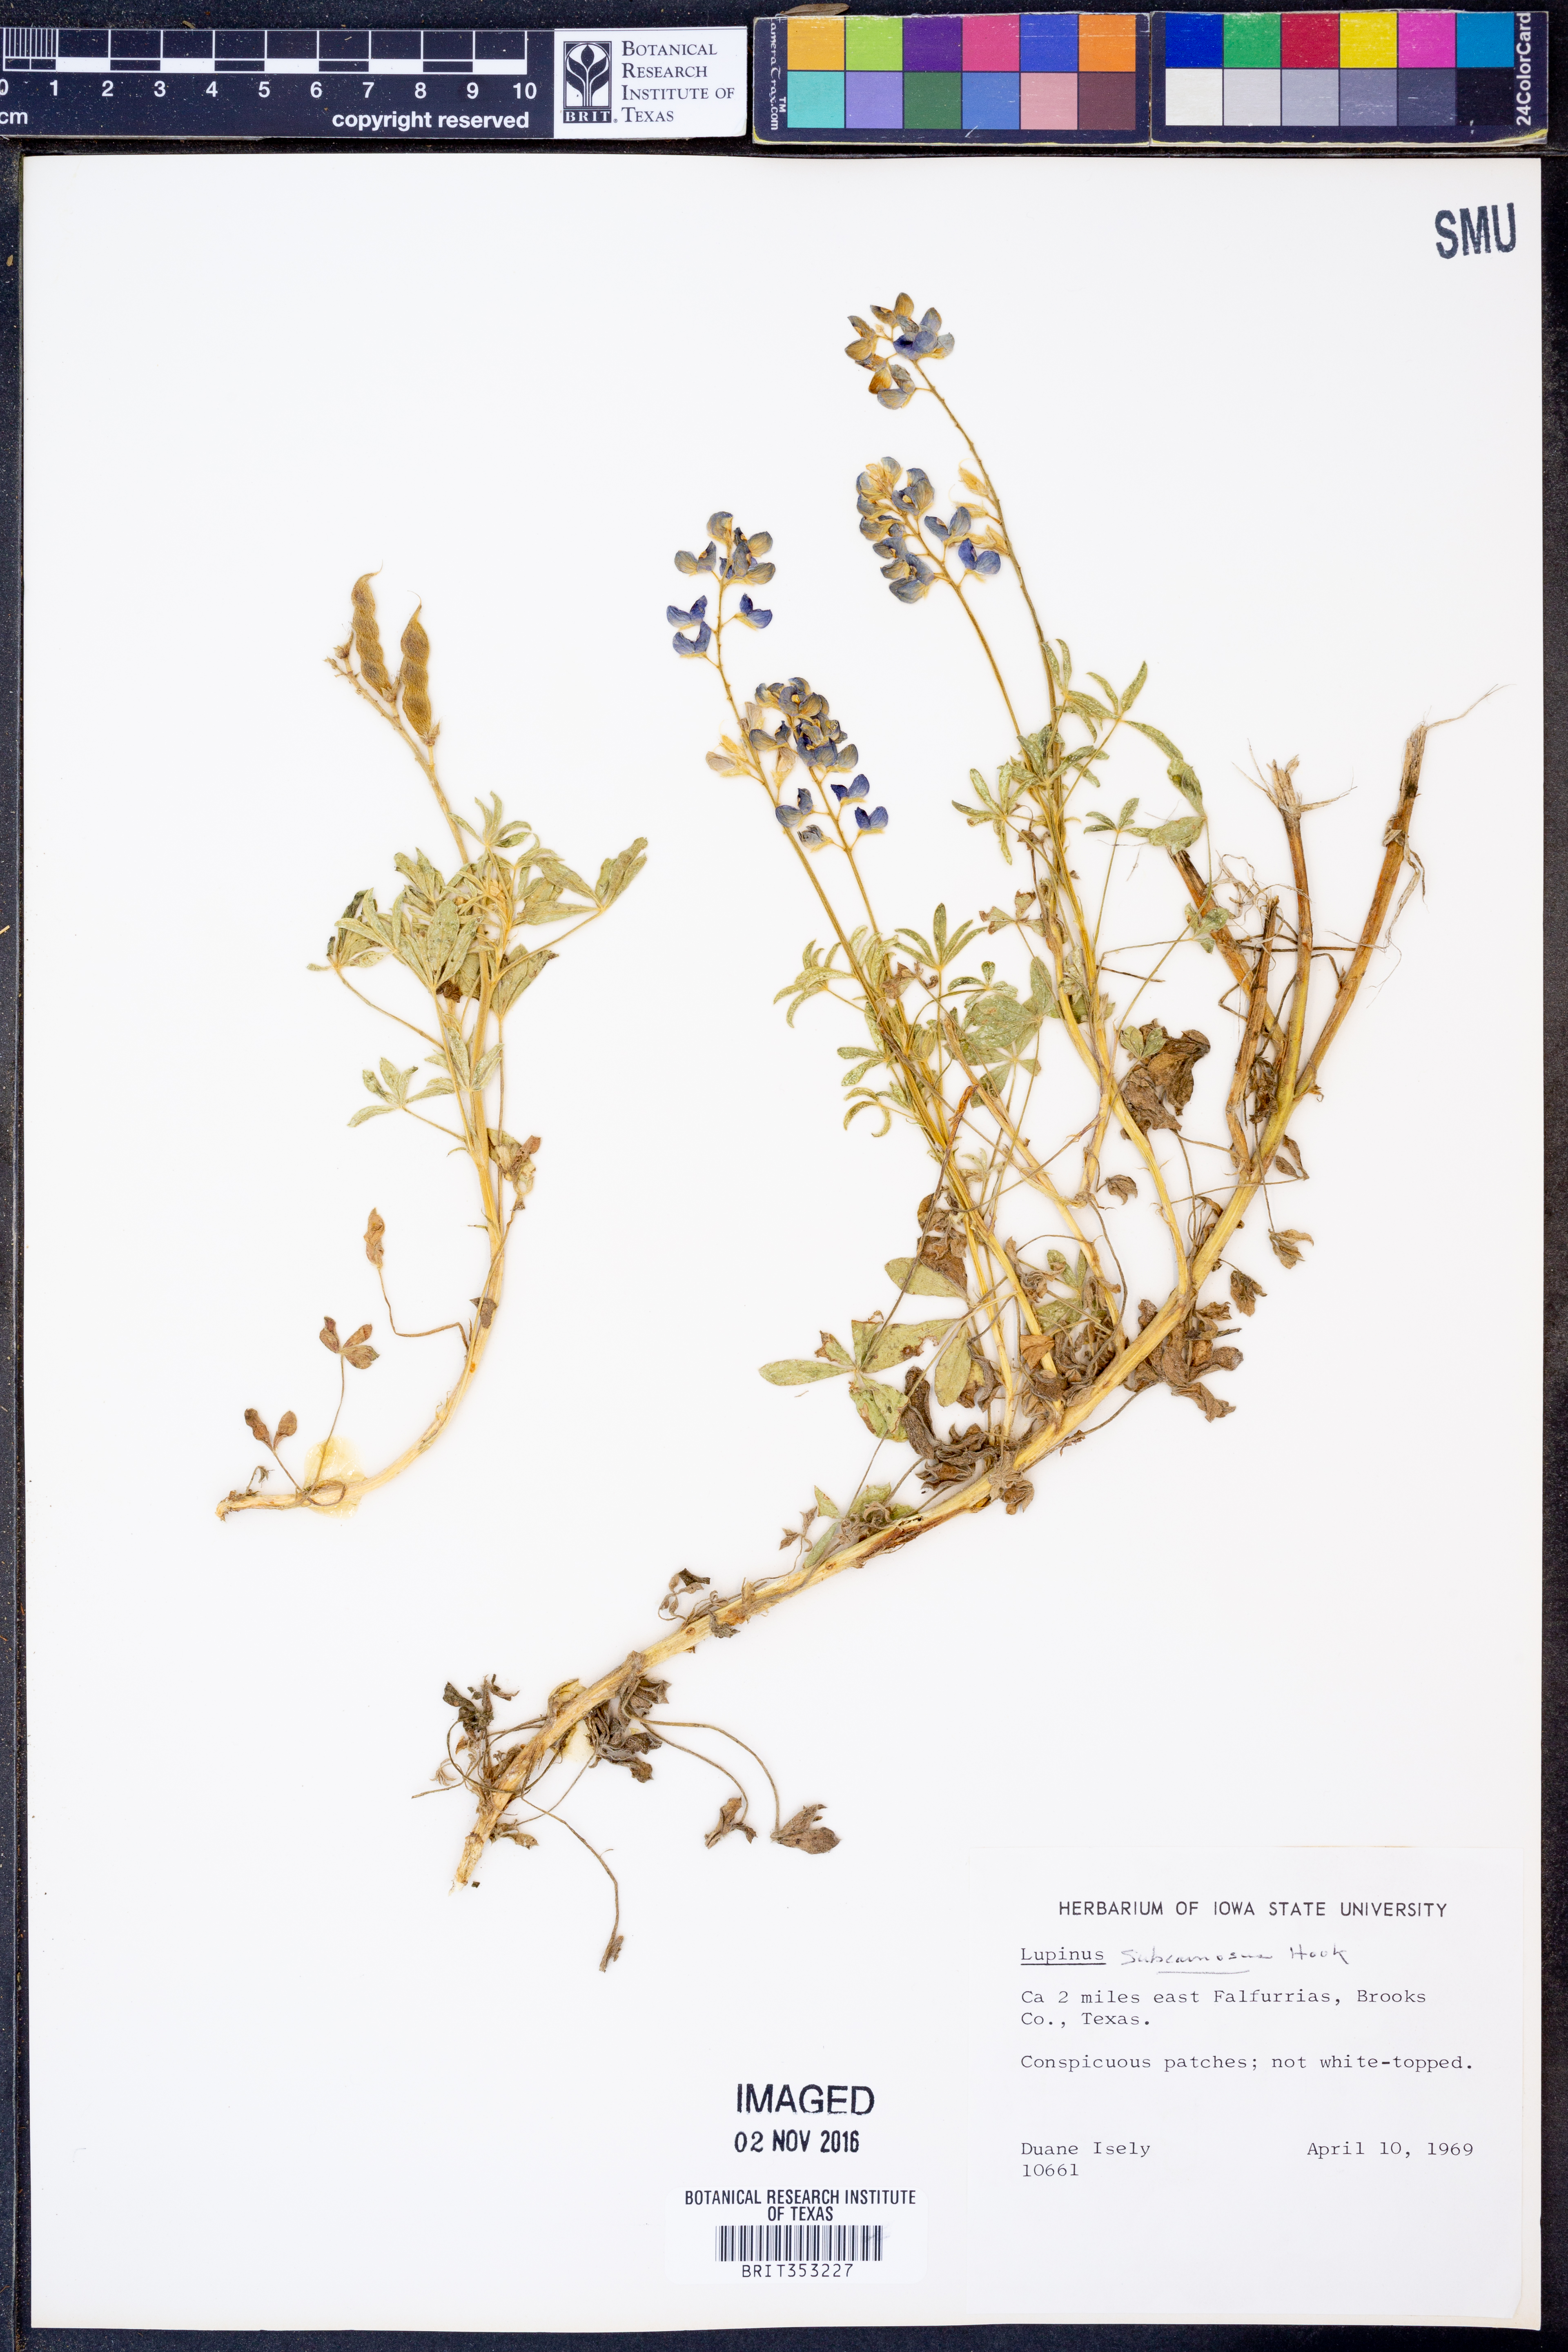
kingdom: Plantae
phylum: Tracheophyta
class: Magnoliopsida
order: Fabales
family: Fabaceae
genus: Lupinus
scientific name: Lupinus subcarnosus
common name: Texas bluebonnet
